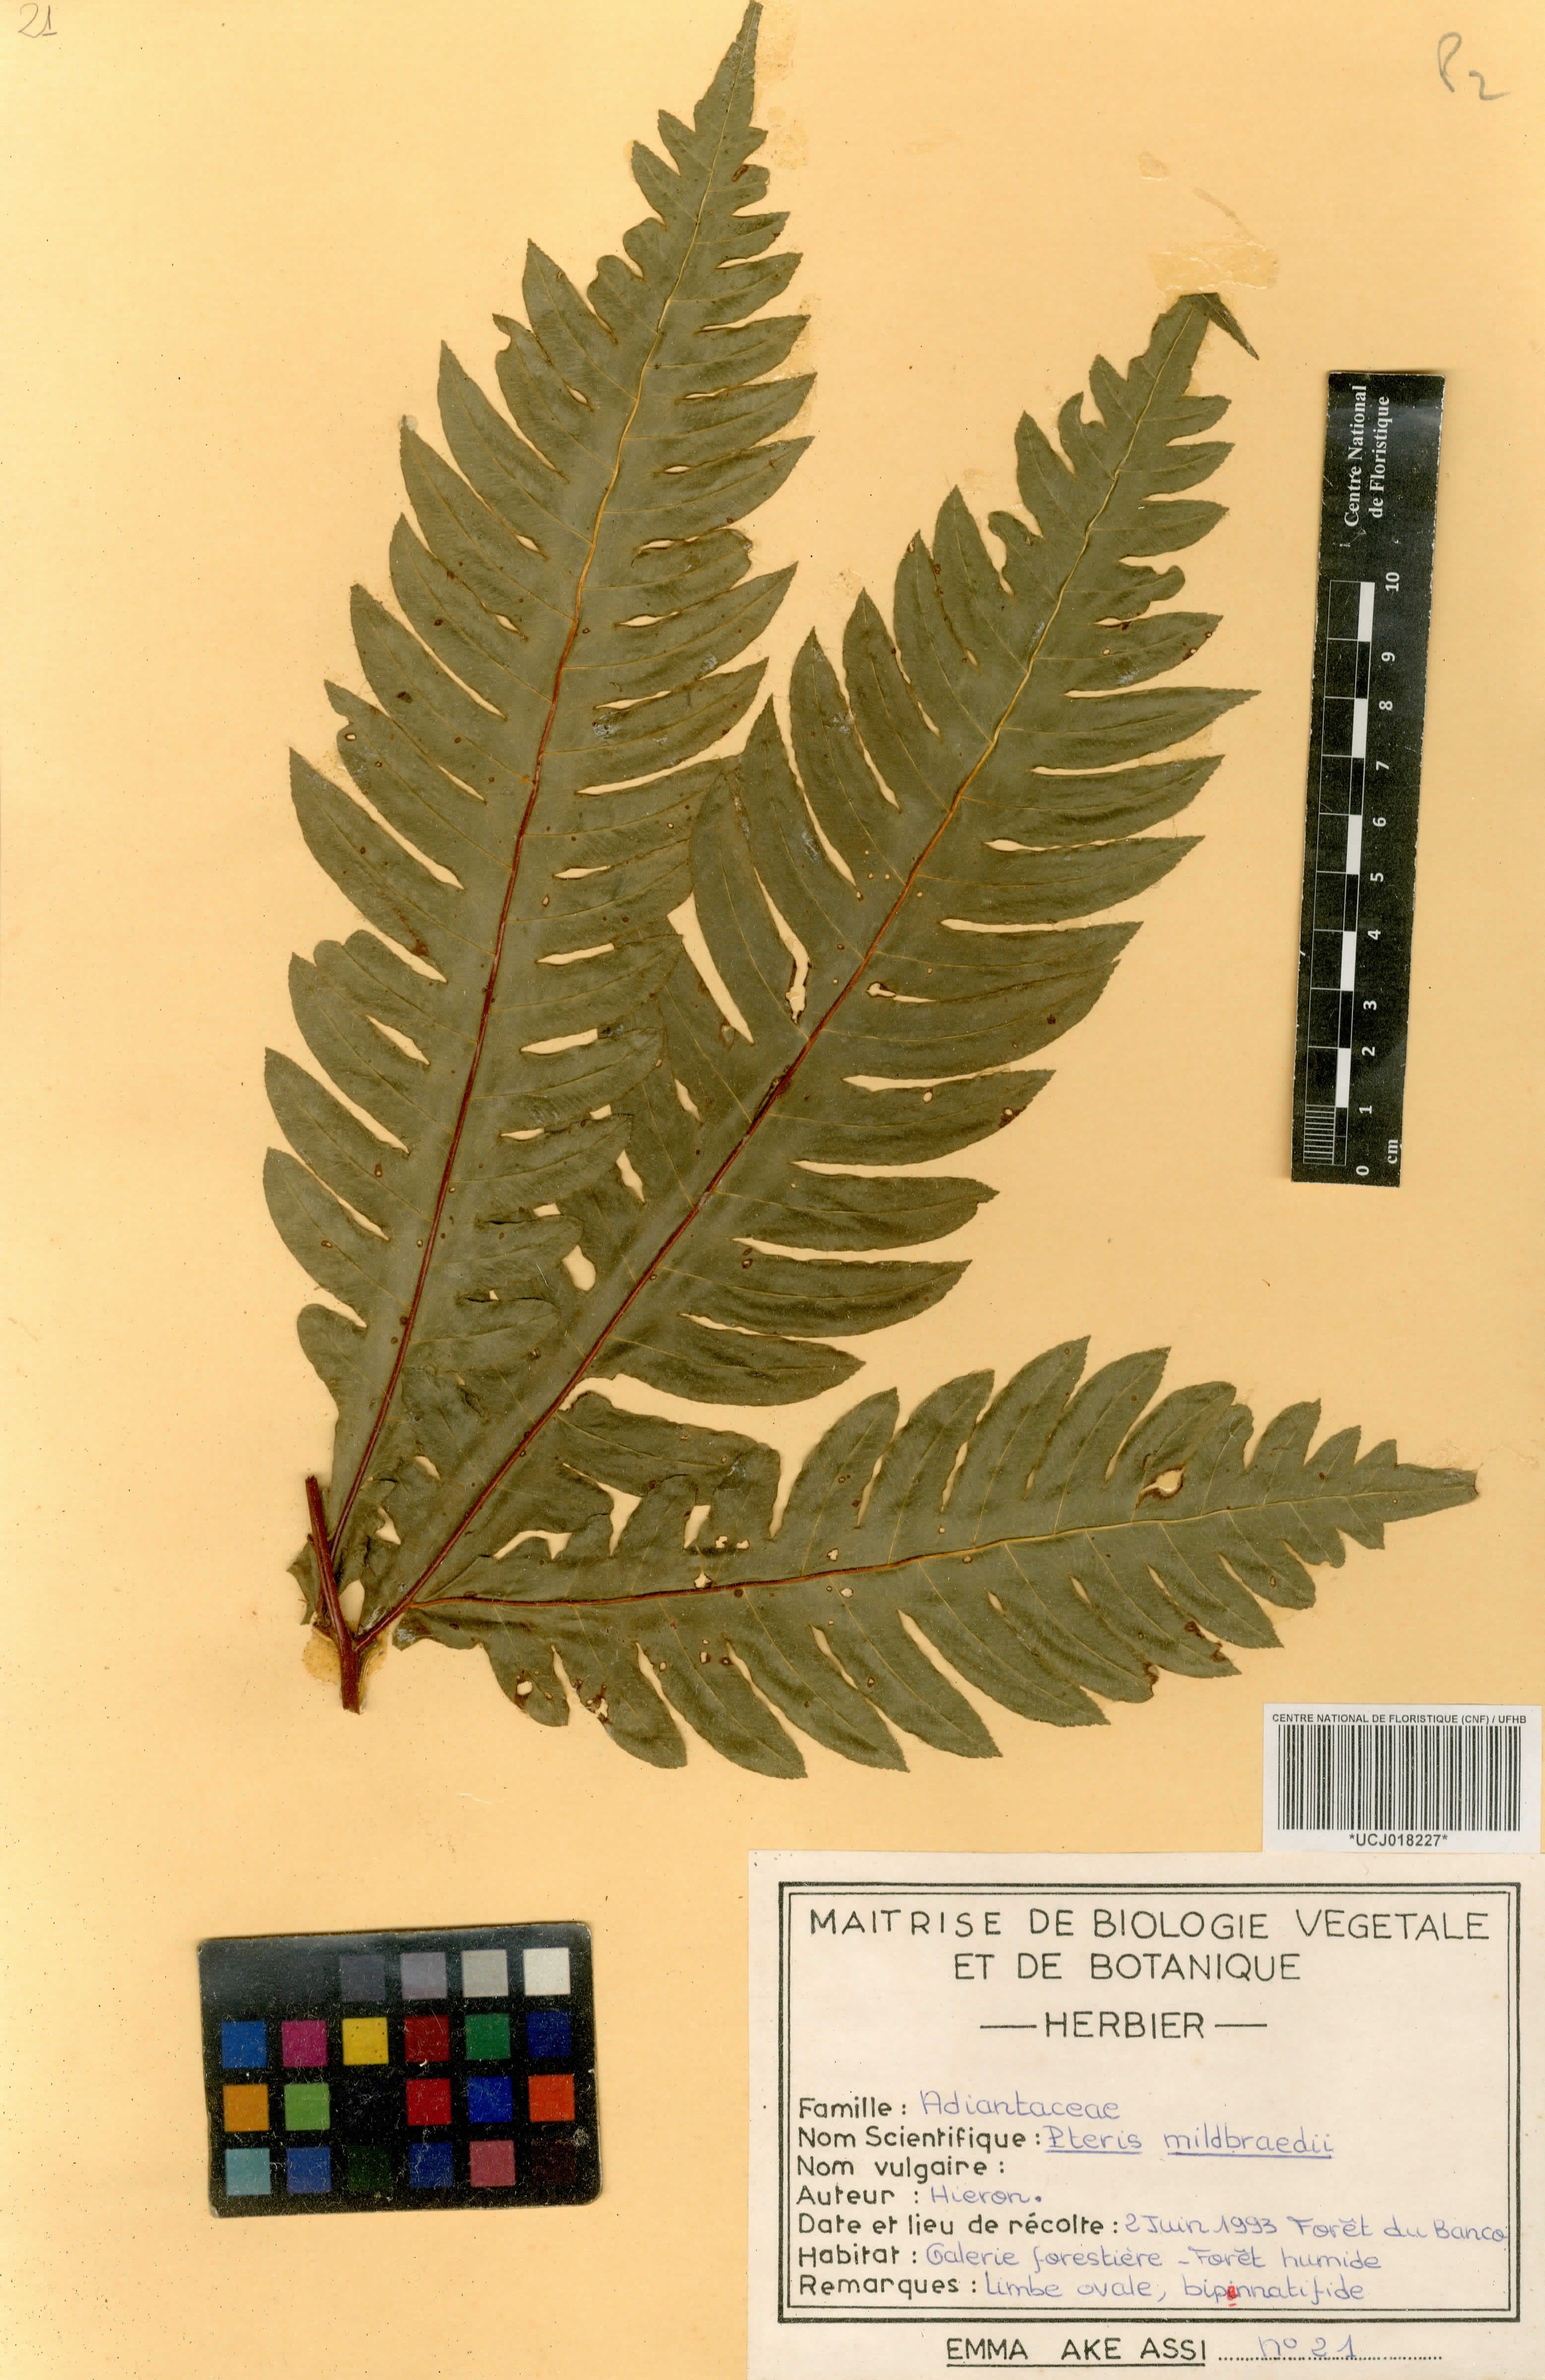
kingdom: Plantae
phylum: Tracheophyta
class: Polypodiopsida
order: Polypodiales
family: Pteridaceae
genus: Pteris
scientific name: Pteris mildbraedii
